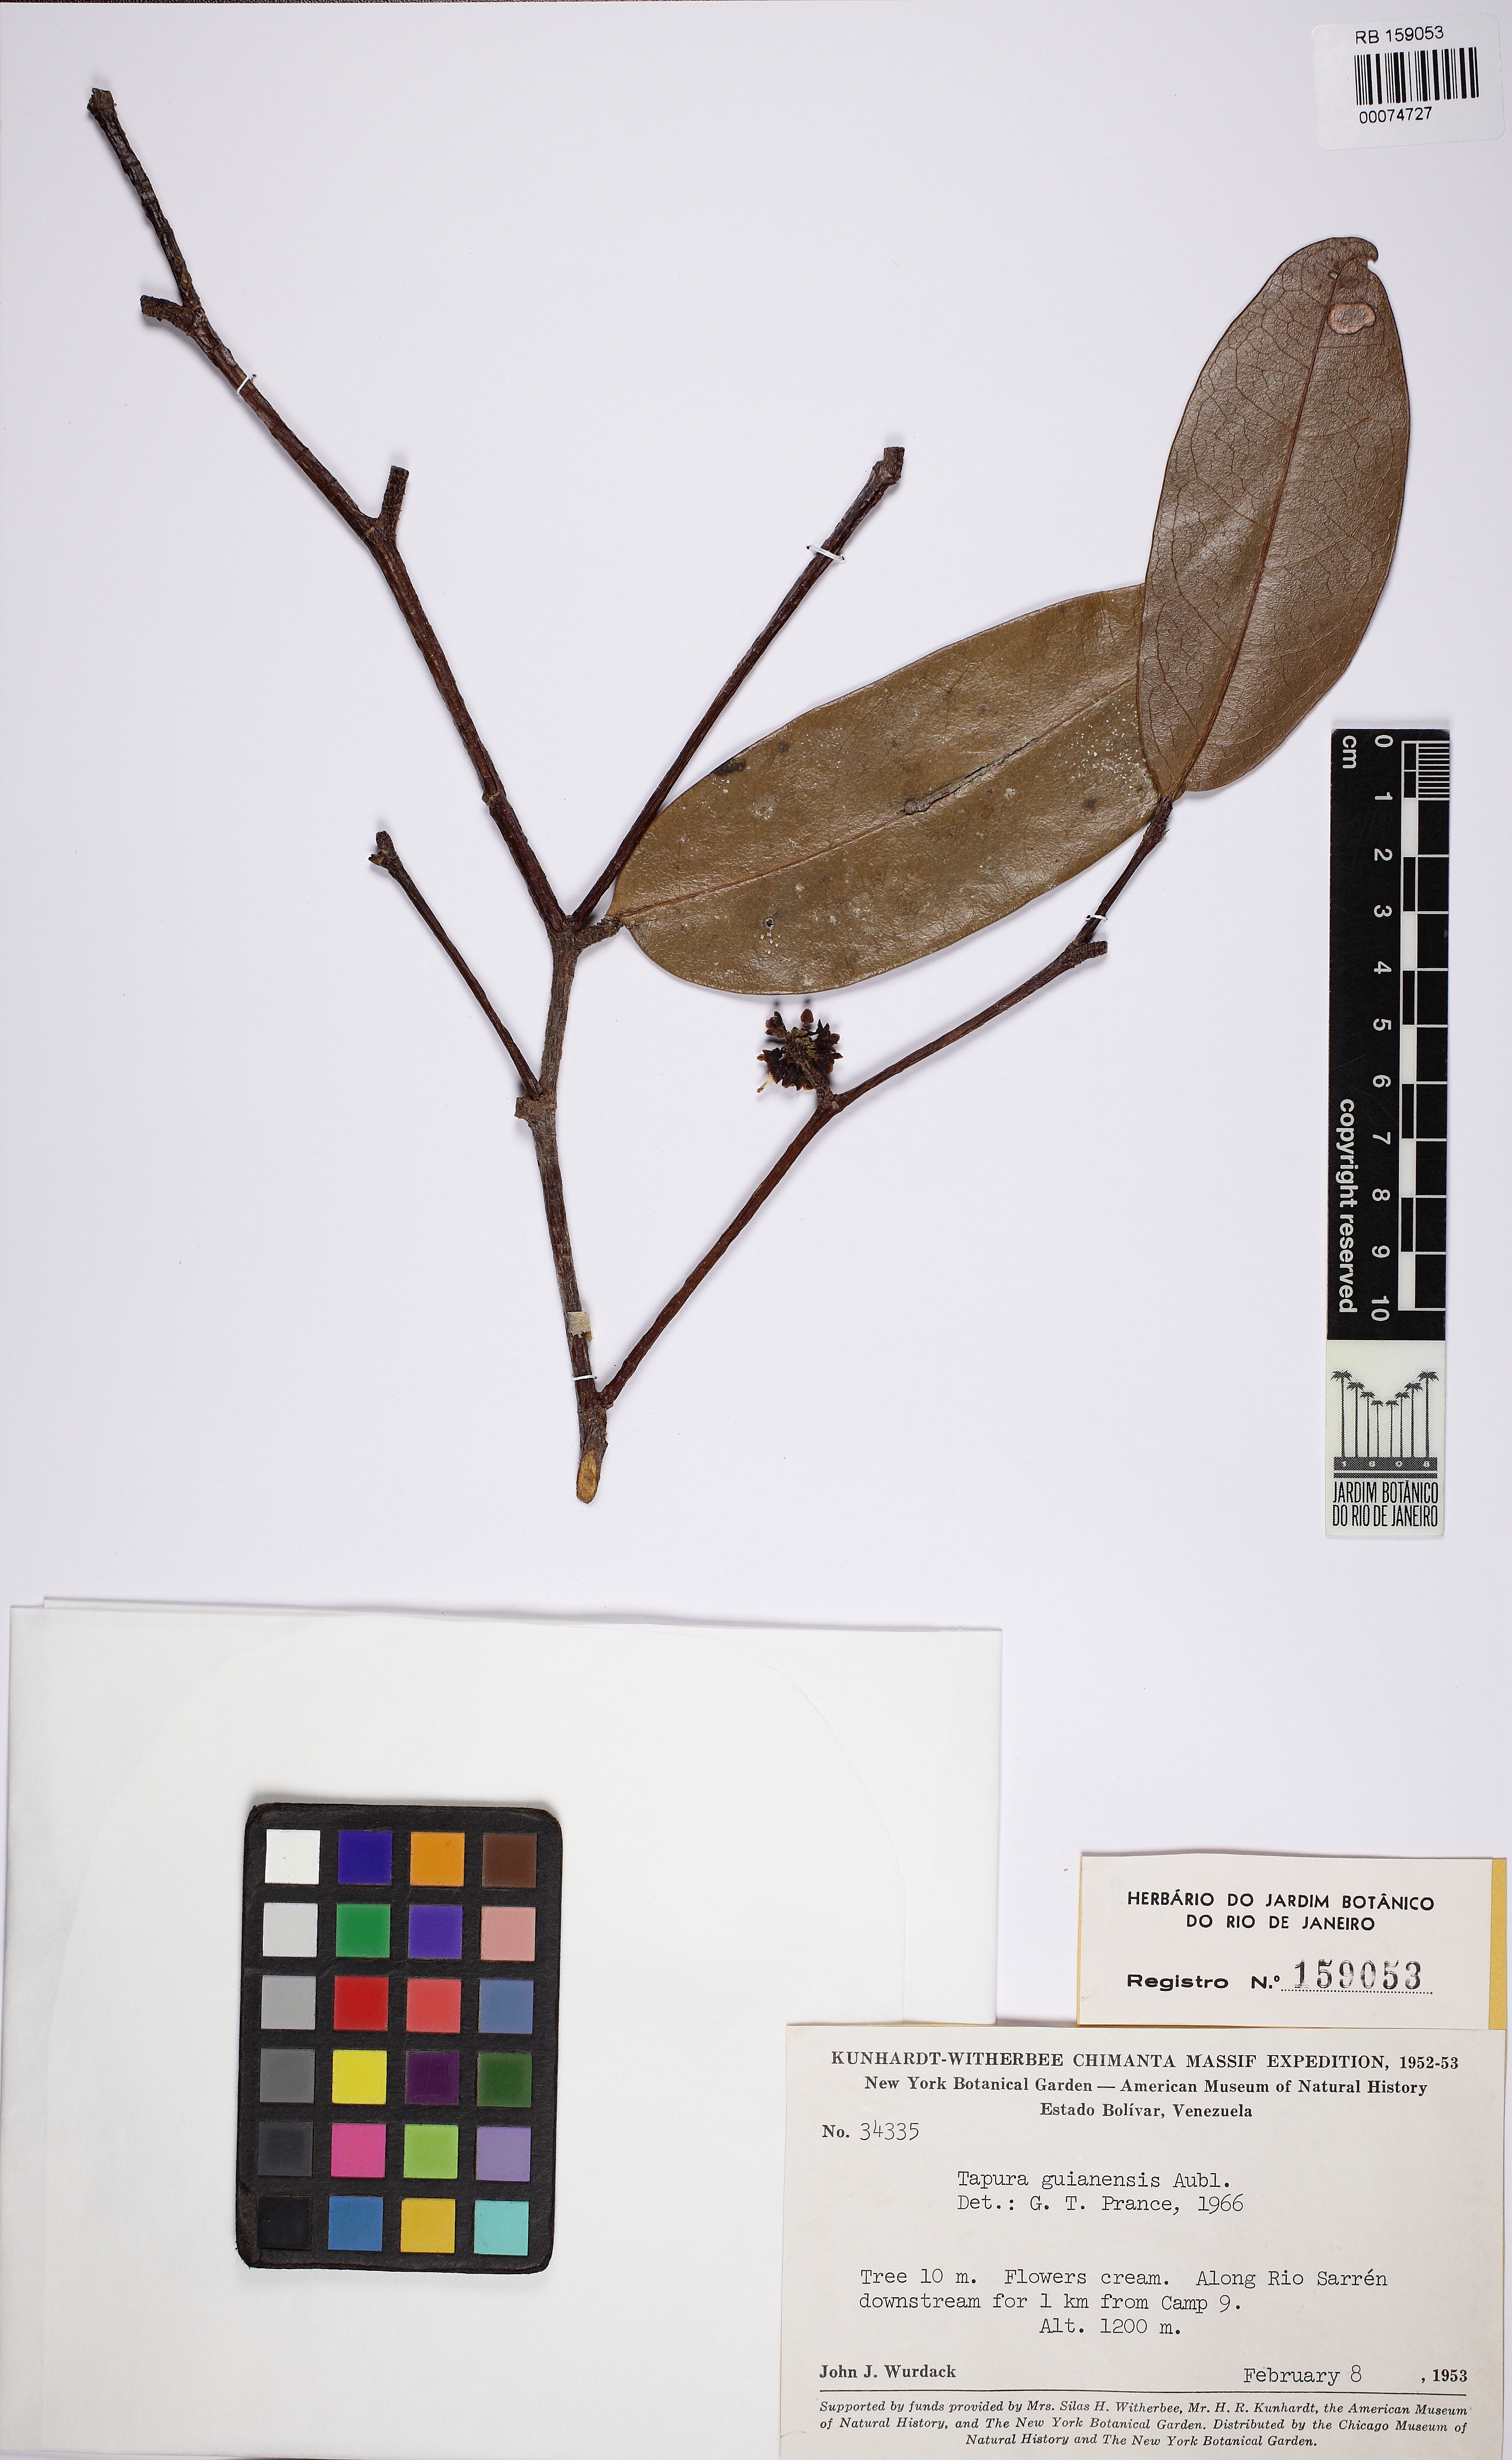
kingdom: Plantae
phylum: Tracheophyta
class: Magnoliopsida
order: Malpighiales
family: Dichapetalaceae
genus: Tapura
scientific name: Tapura guianensis
